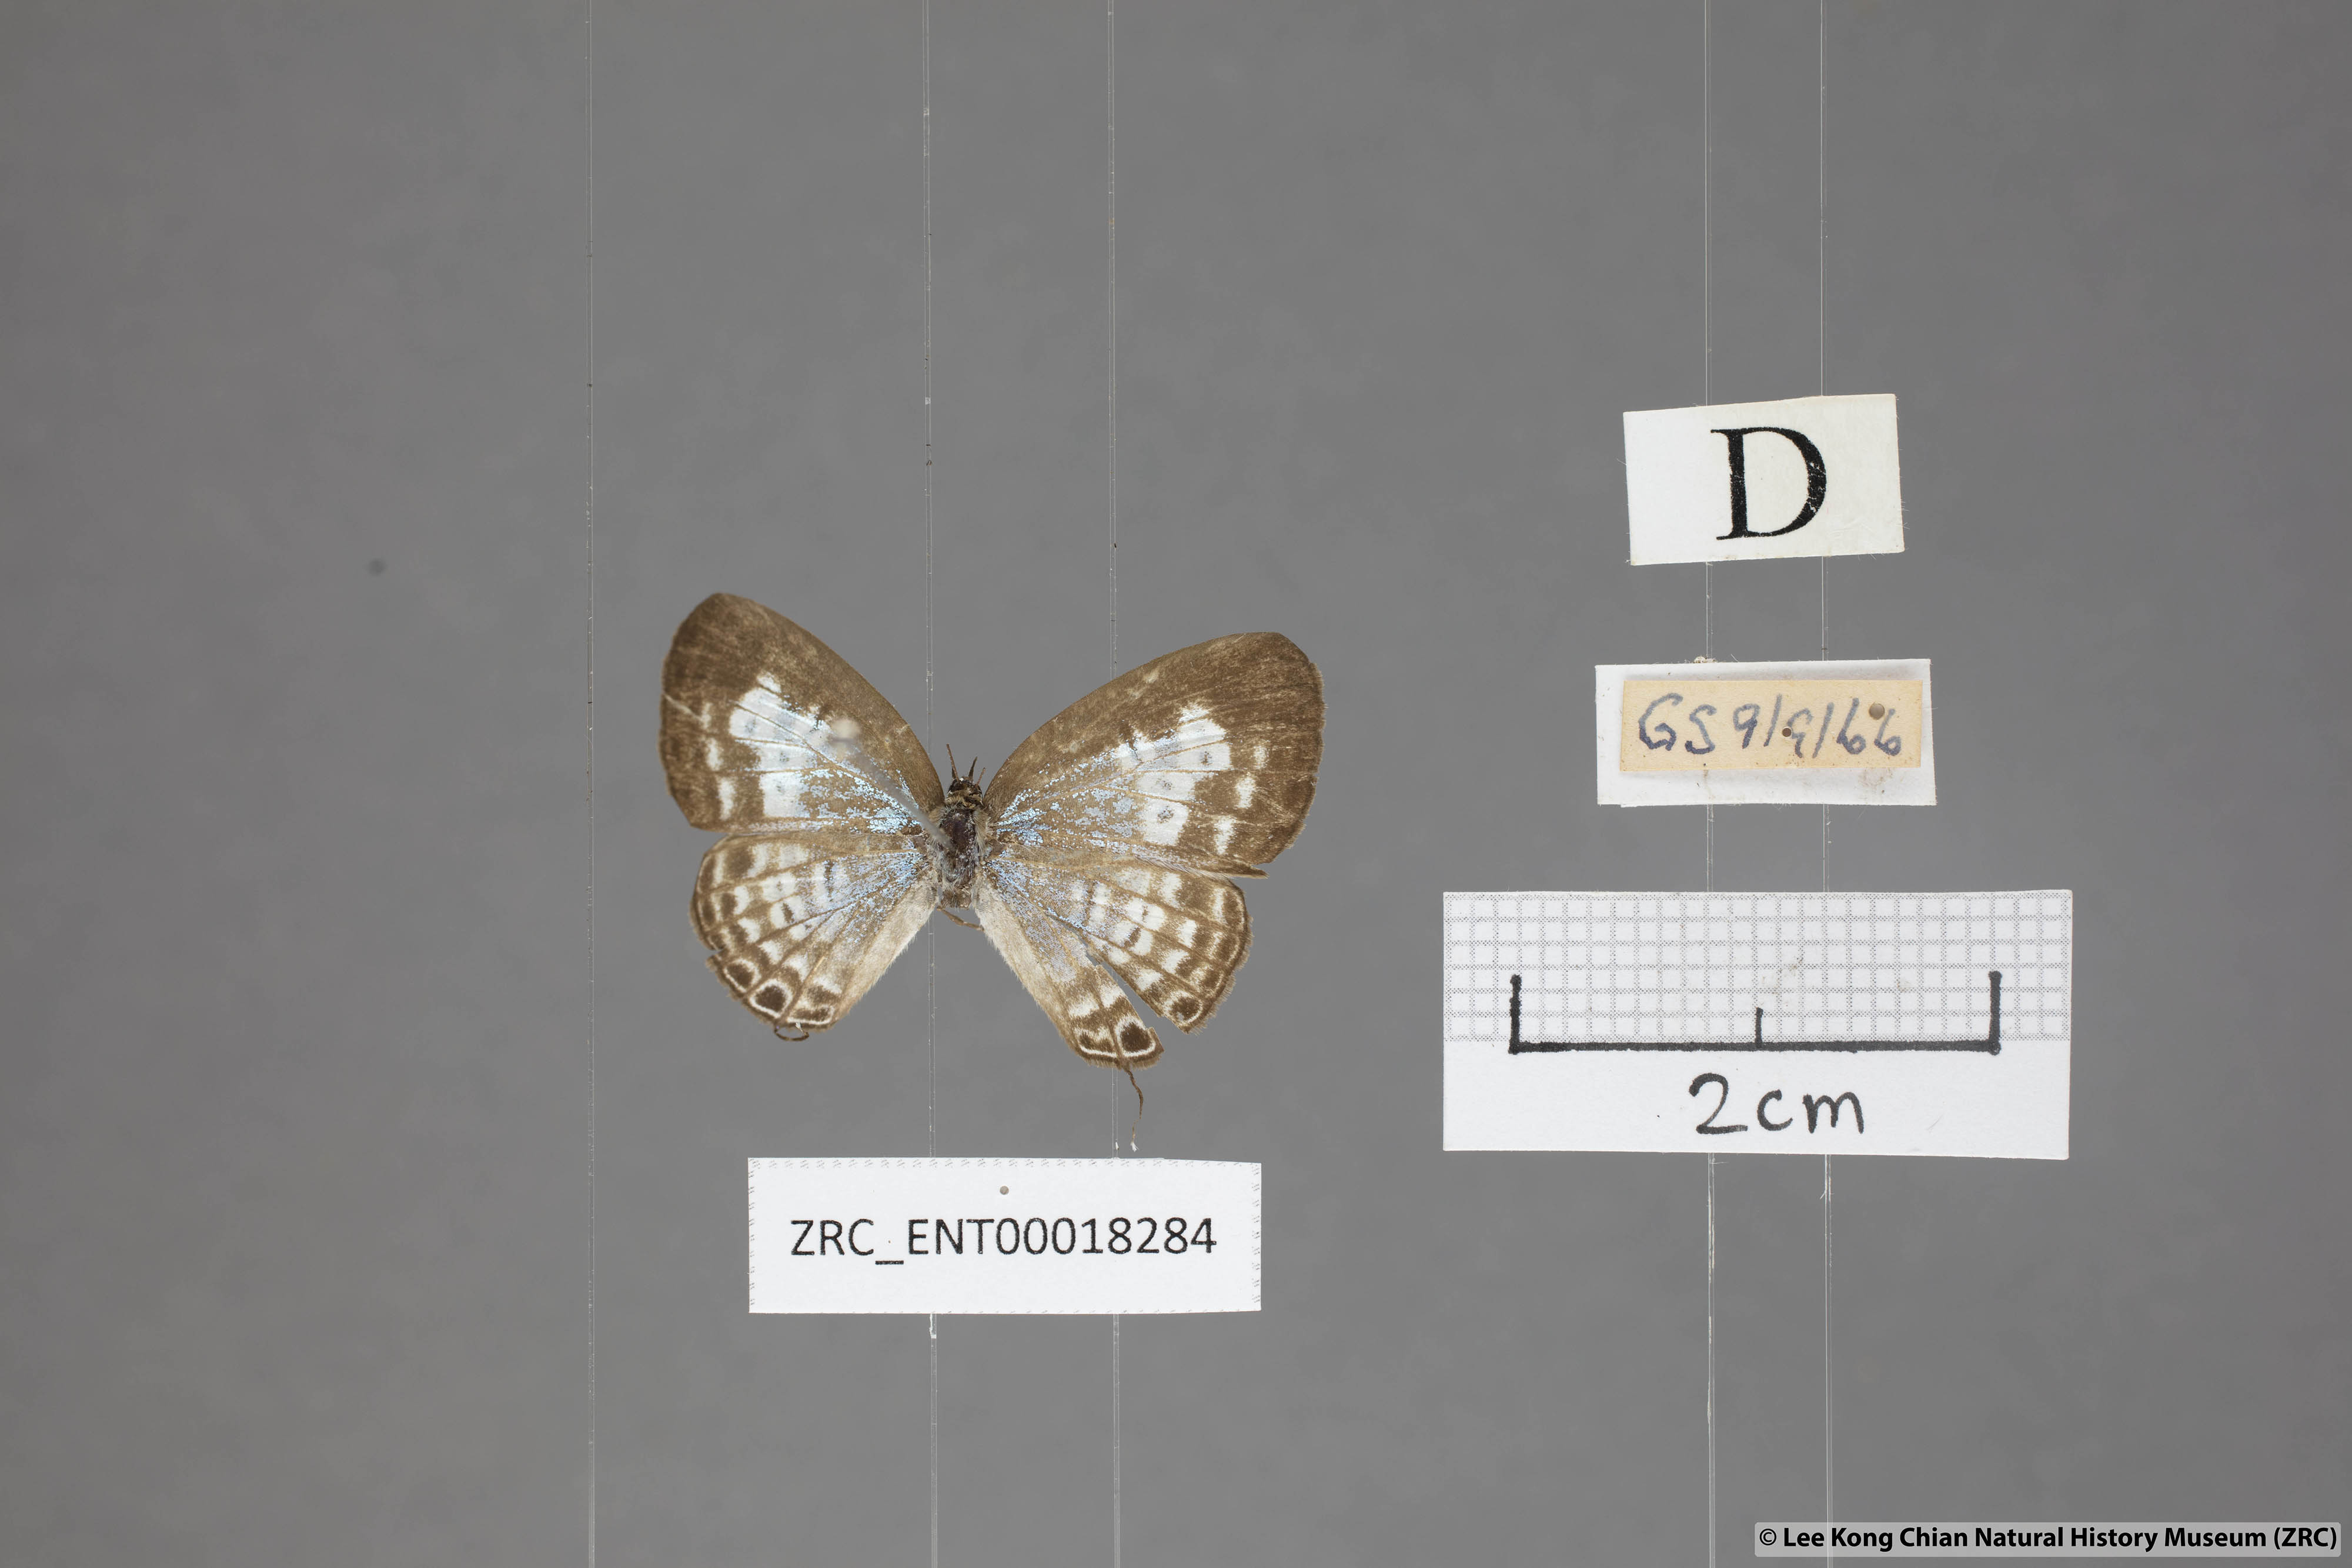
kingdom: Animalia
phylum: Arthropoda
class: Insecta
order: Lepidoptera
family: Lycaenidae
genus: Nacaduba
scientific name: Nacaduba angusta
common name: White four-line blue
